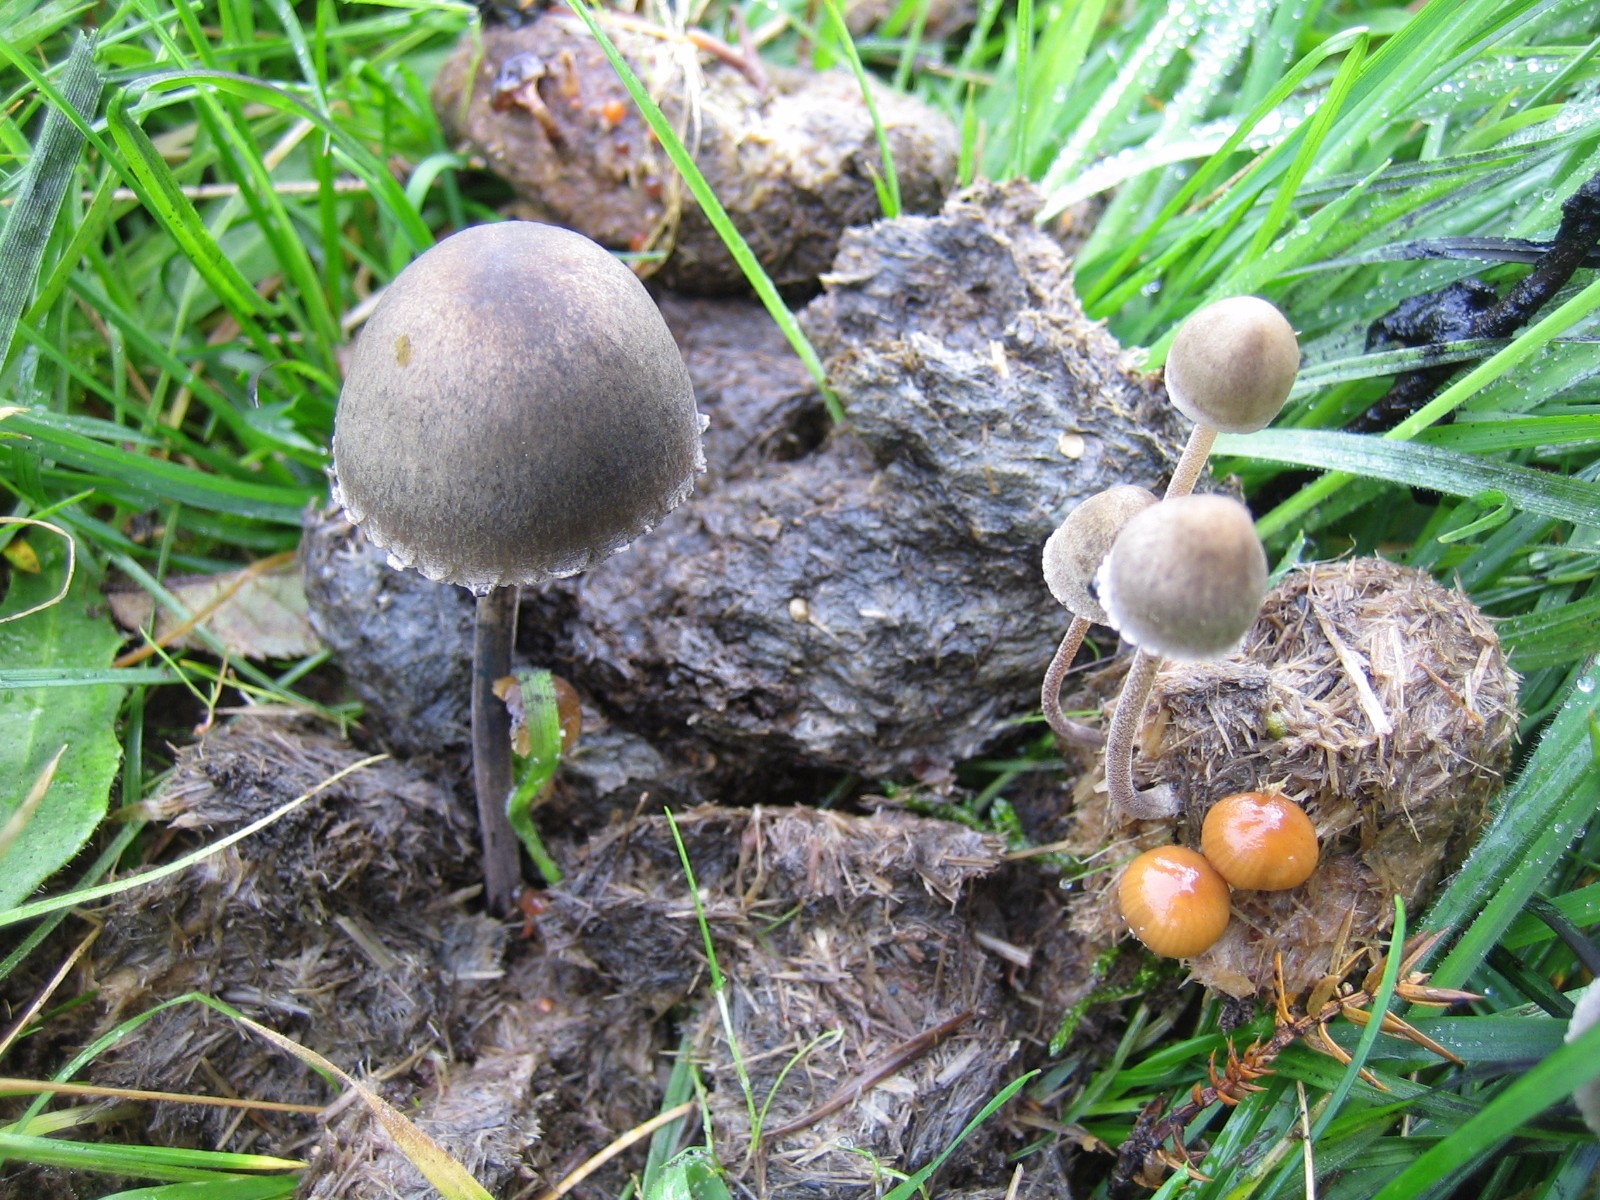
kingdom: Fungi
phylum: Basidiomycota
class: Agaricomycetes
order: Agaricales
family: Bolbitiaceae
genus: Panaeolus
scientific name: Panaeolus papilionaceus
